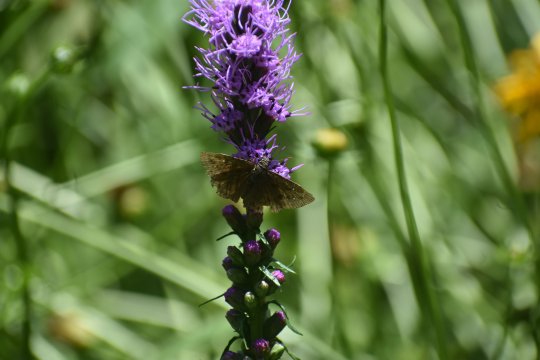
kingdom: Animalia
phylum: Arthropoda
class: Insecta
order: Lepidoptera
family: Hesperiidae
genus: Gesta
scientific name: Gesta
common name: Wild Indigo Duskywing
